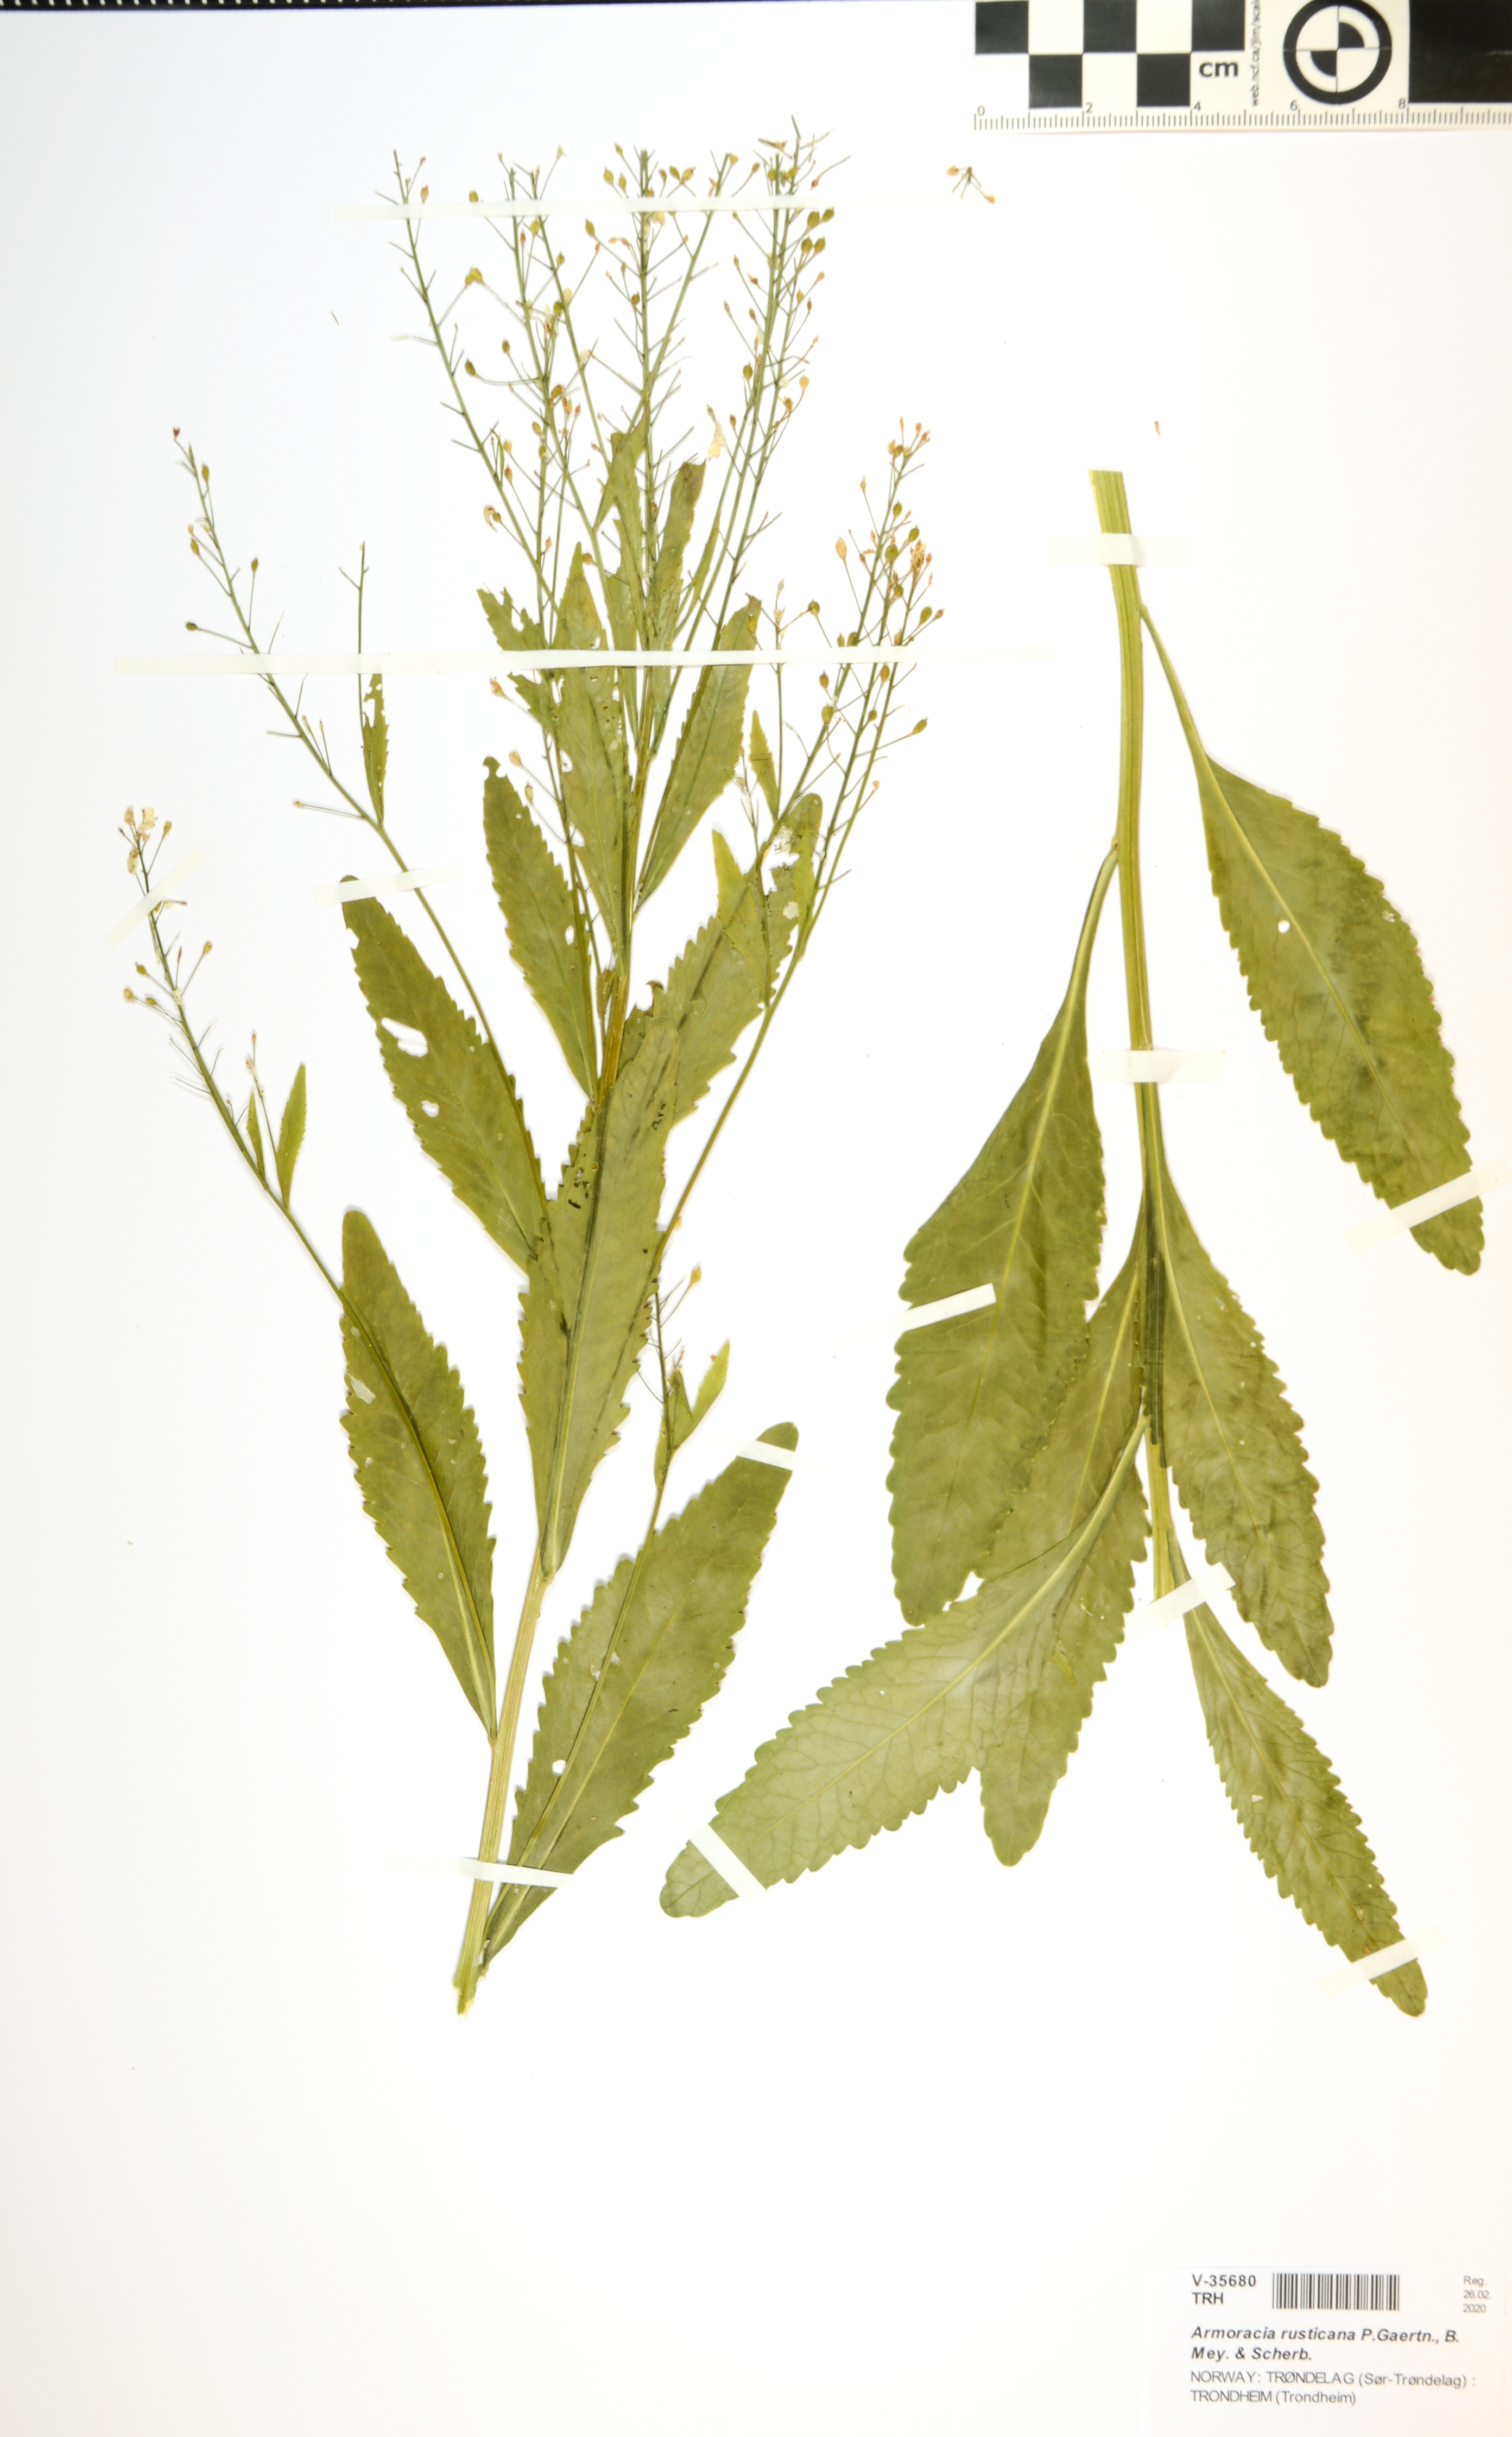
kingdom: Plantae
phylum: Tracheophyta
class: Magnoliopsida
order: Brassicales
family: Brassicaceae
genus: Armoracia
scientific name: Armoracia rusticana
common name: Horseradish
